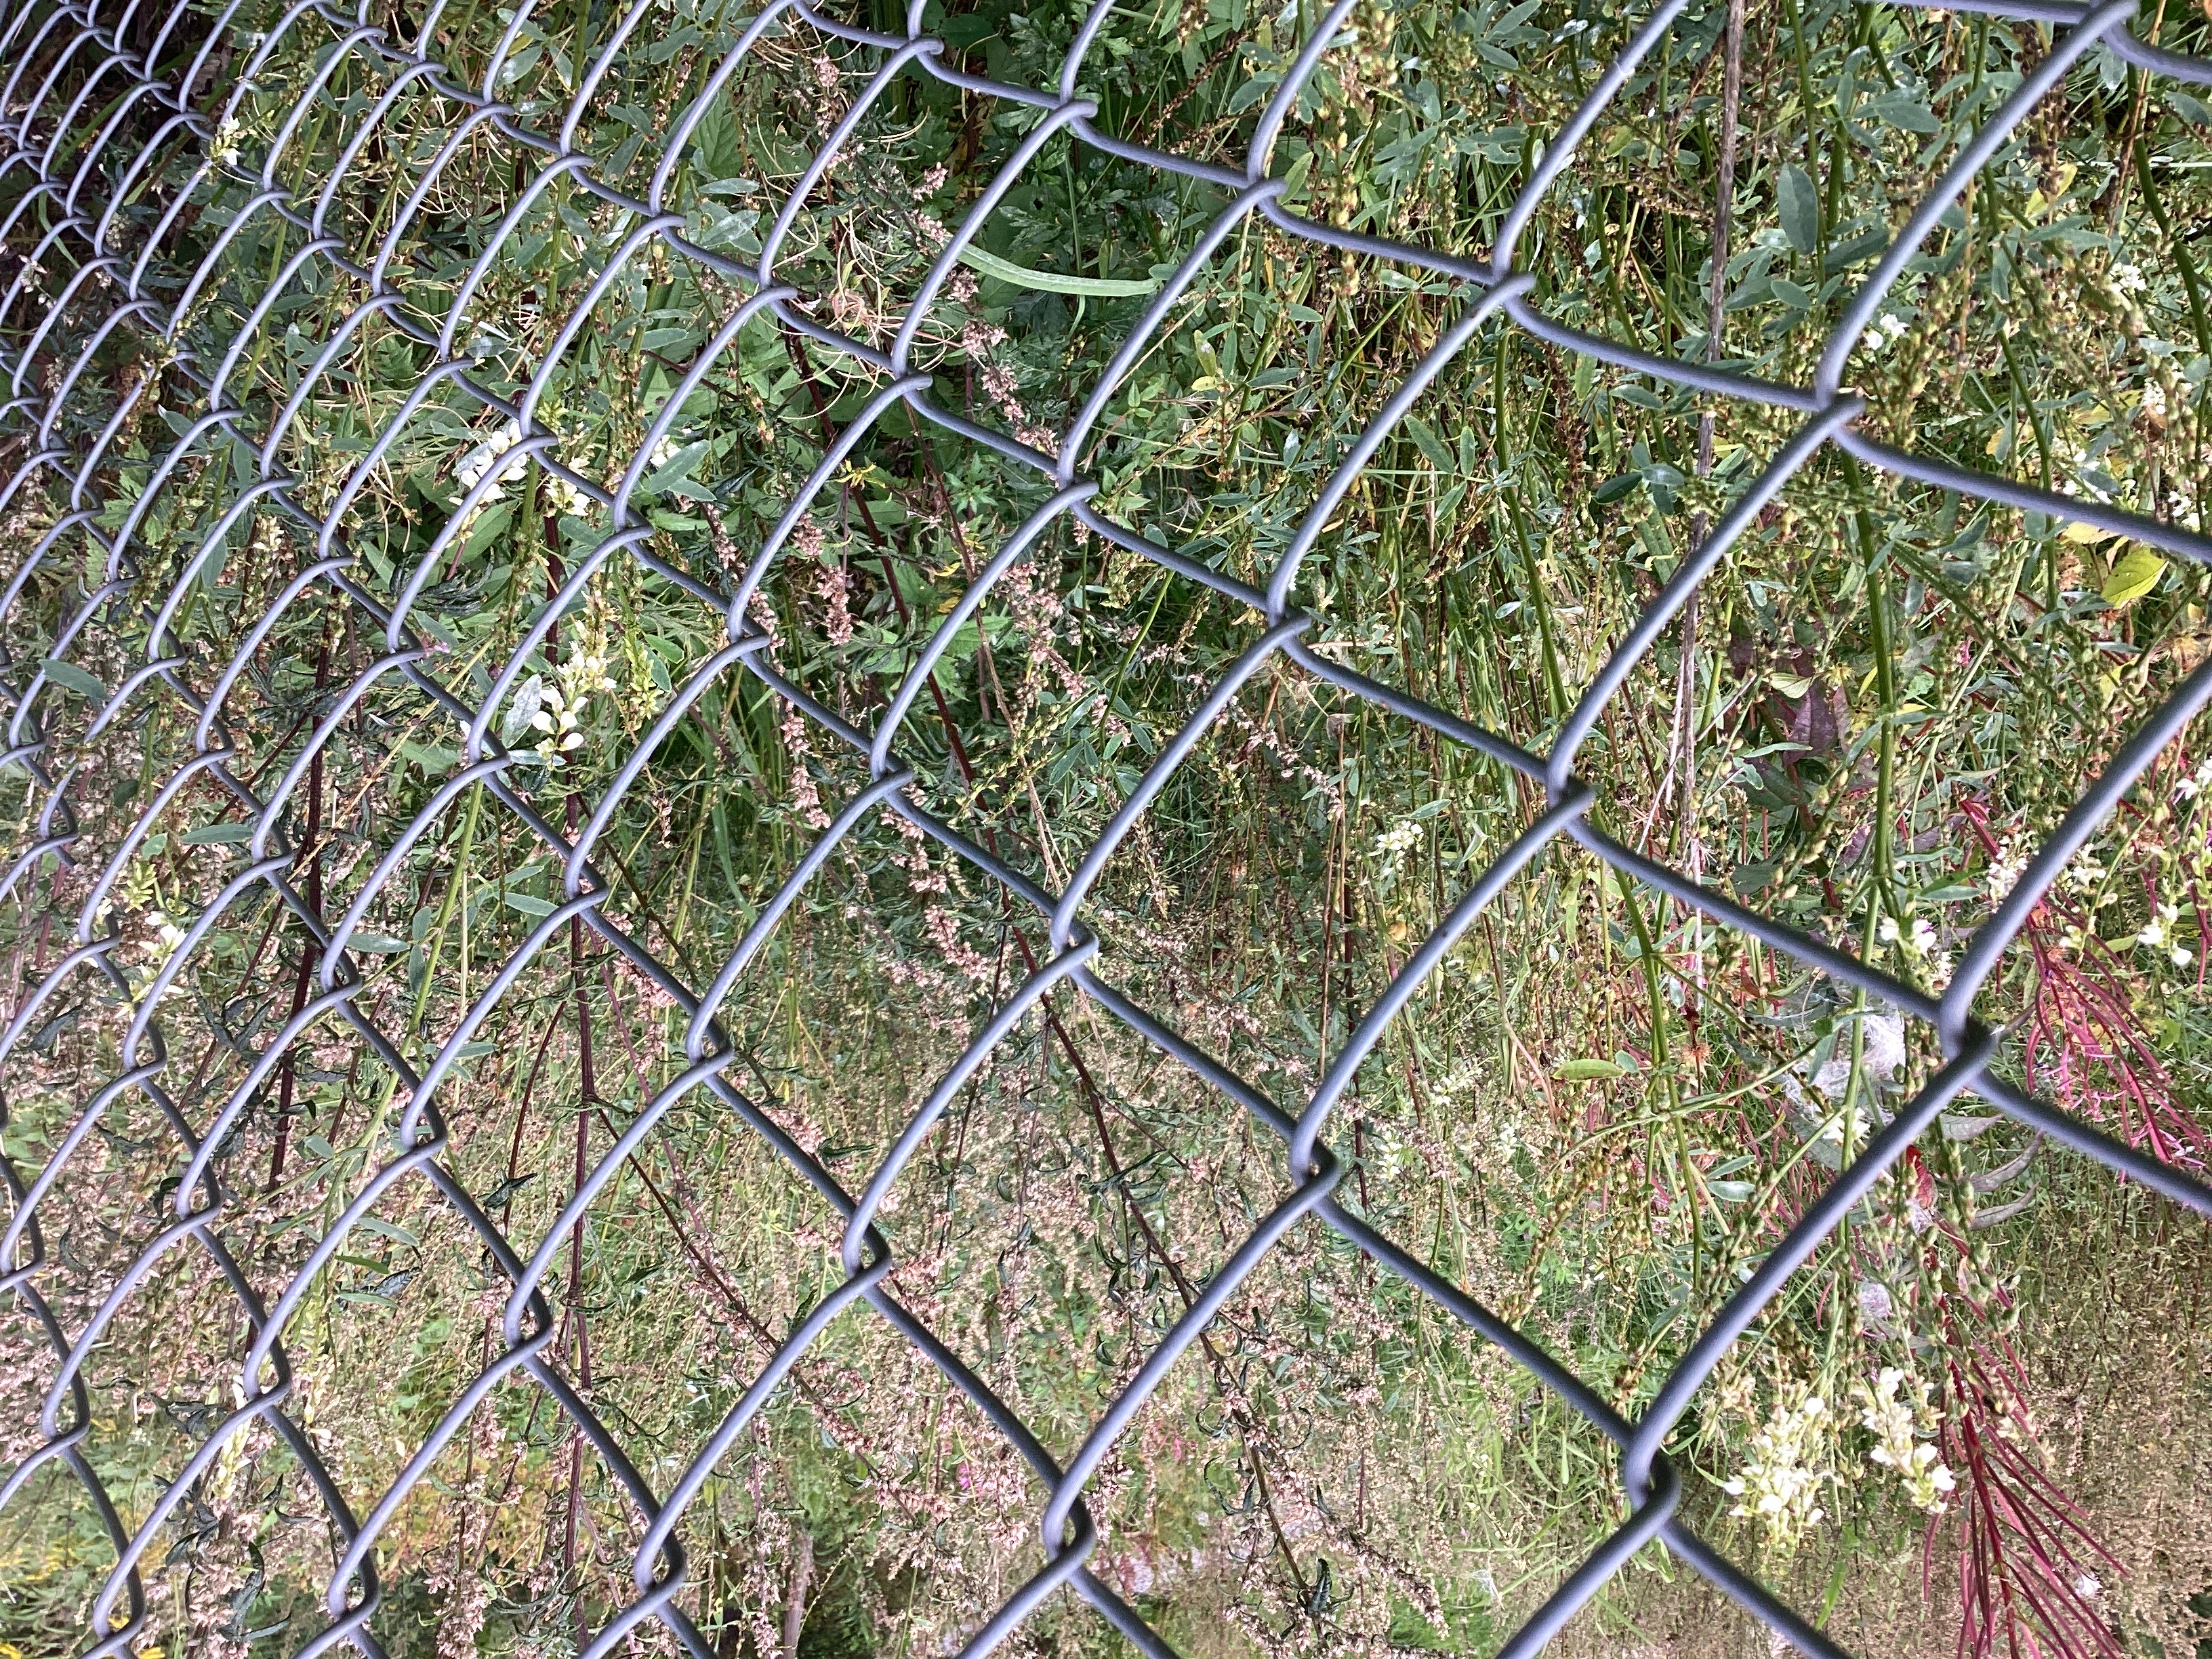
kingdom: Plantae
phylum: Tracheophyta
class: Magnoliopsida
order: Fabales
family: Fabaceae
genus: Melilotus
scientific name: Melilotus albus
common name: hvitsteinkløver
